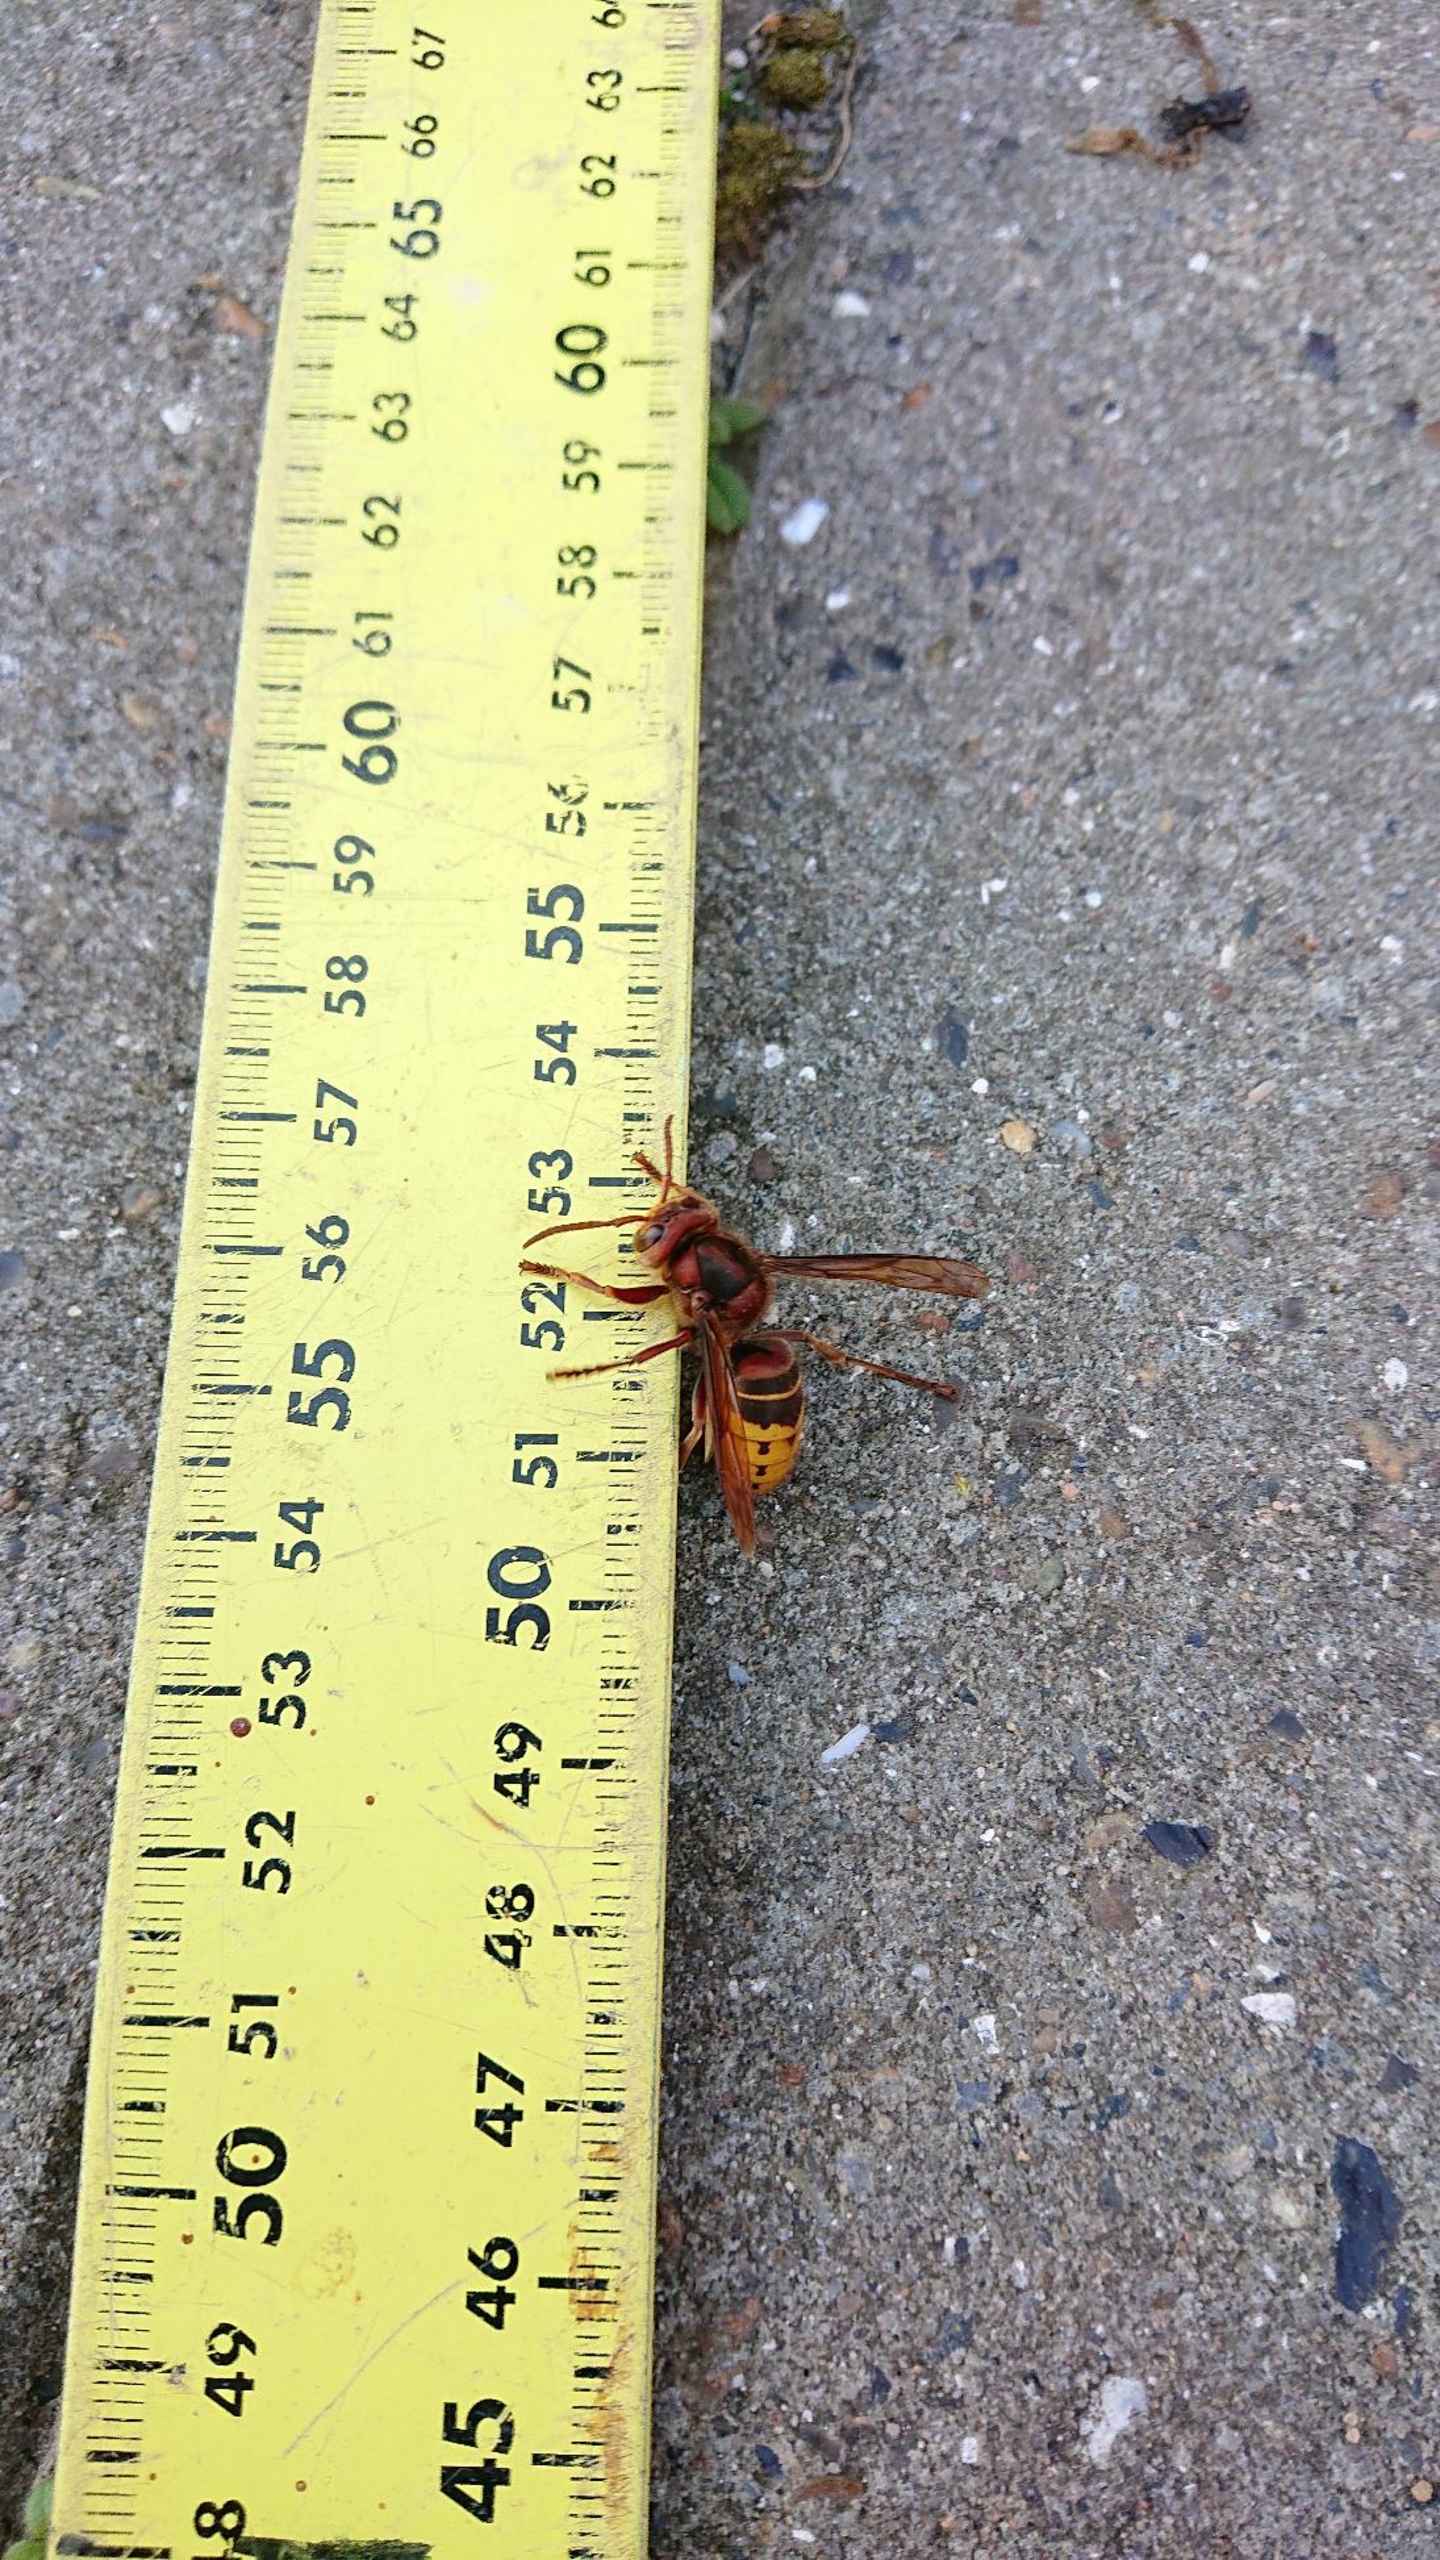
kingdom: Animalia
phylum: Arthropoda
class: Insecta
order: Hymenoptera
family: Vespidae
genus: Vespa
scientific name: Vespa crabro
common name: Stor gedehams
